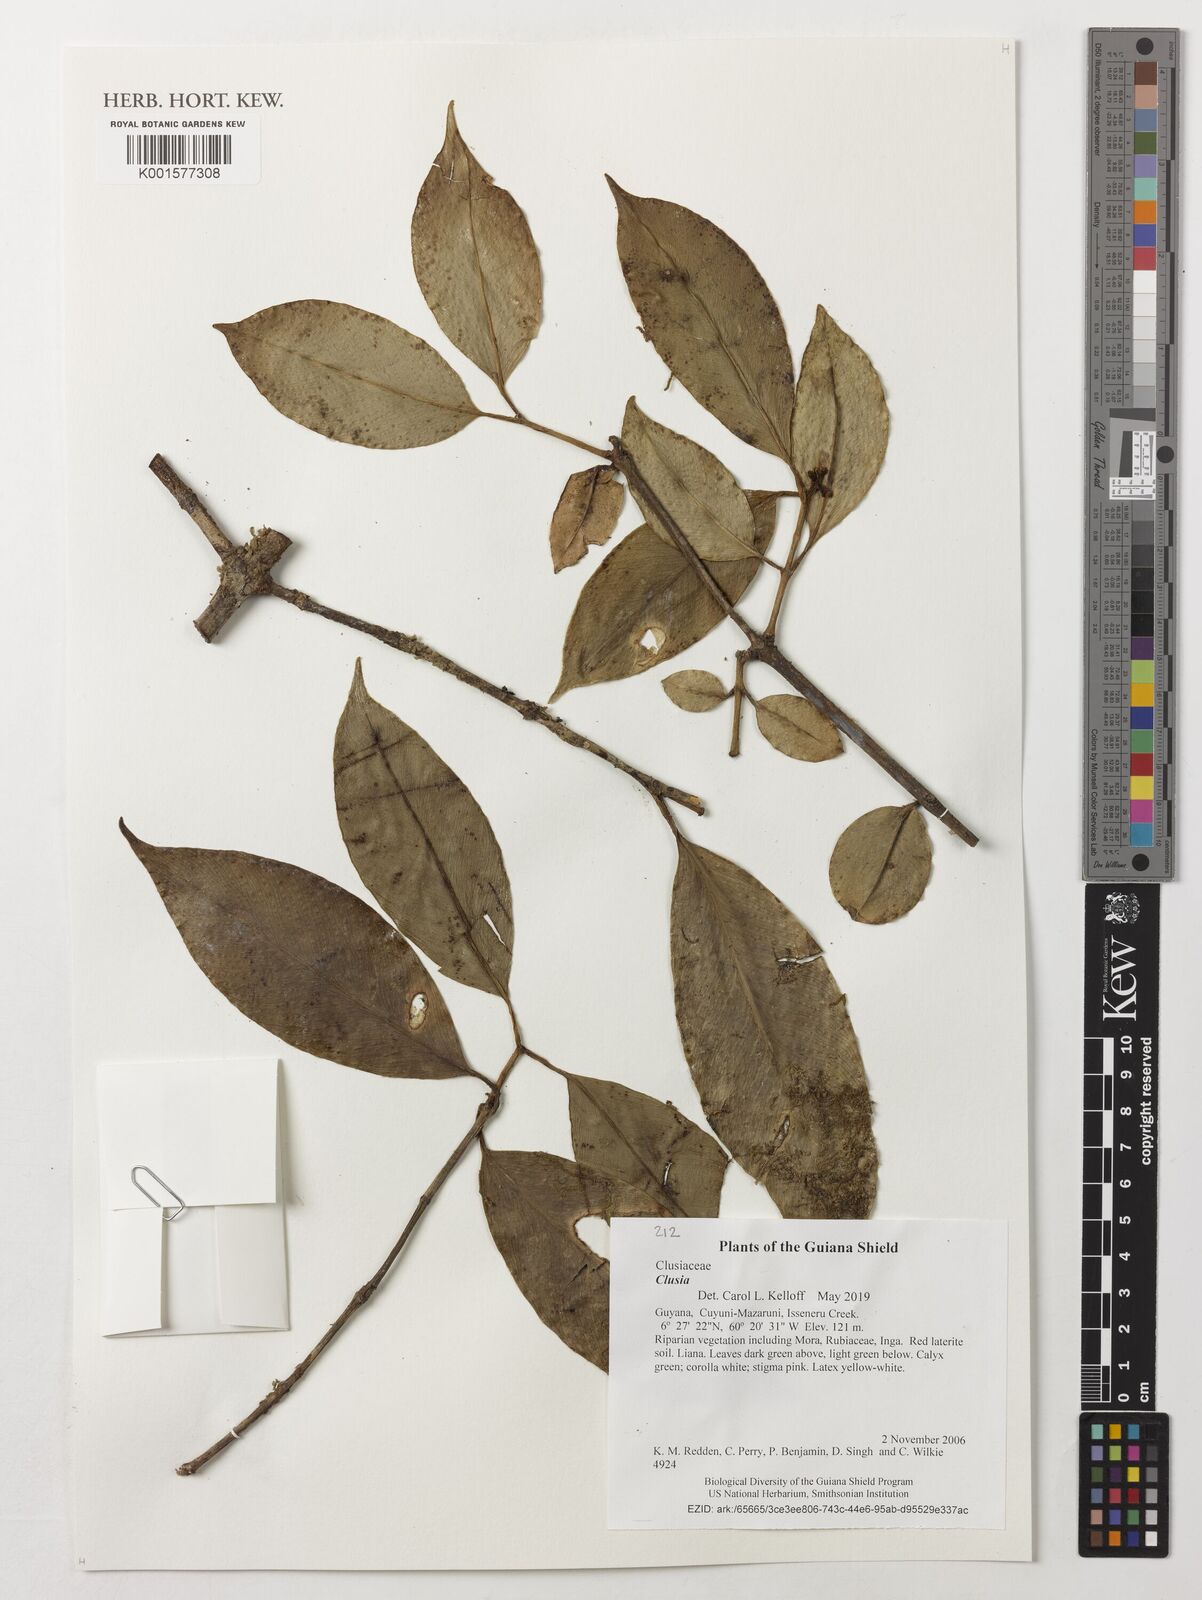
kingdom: Plantae
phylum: Tracheophyta
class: Magnoliopsida
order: Malpighiales
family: Clusiaceae
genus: Clusia
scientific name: Clusia
